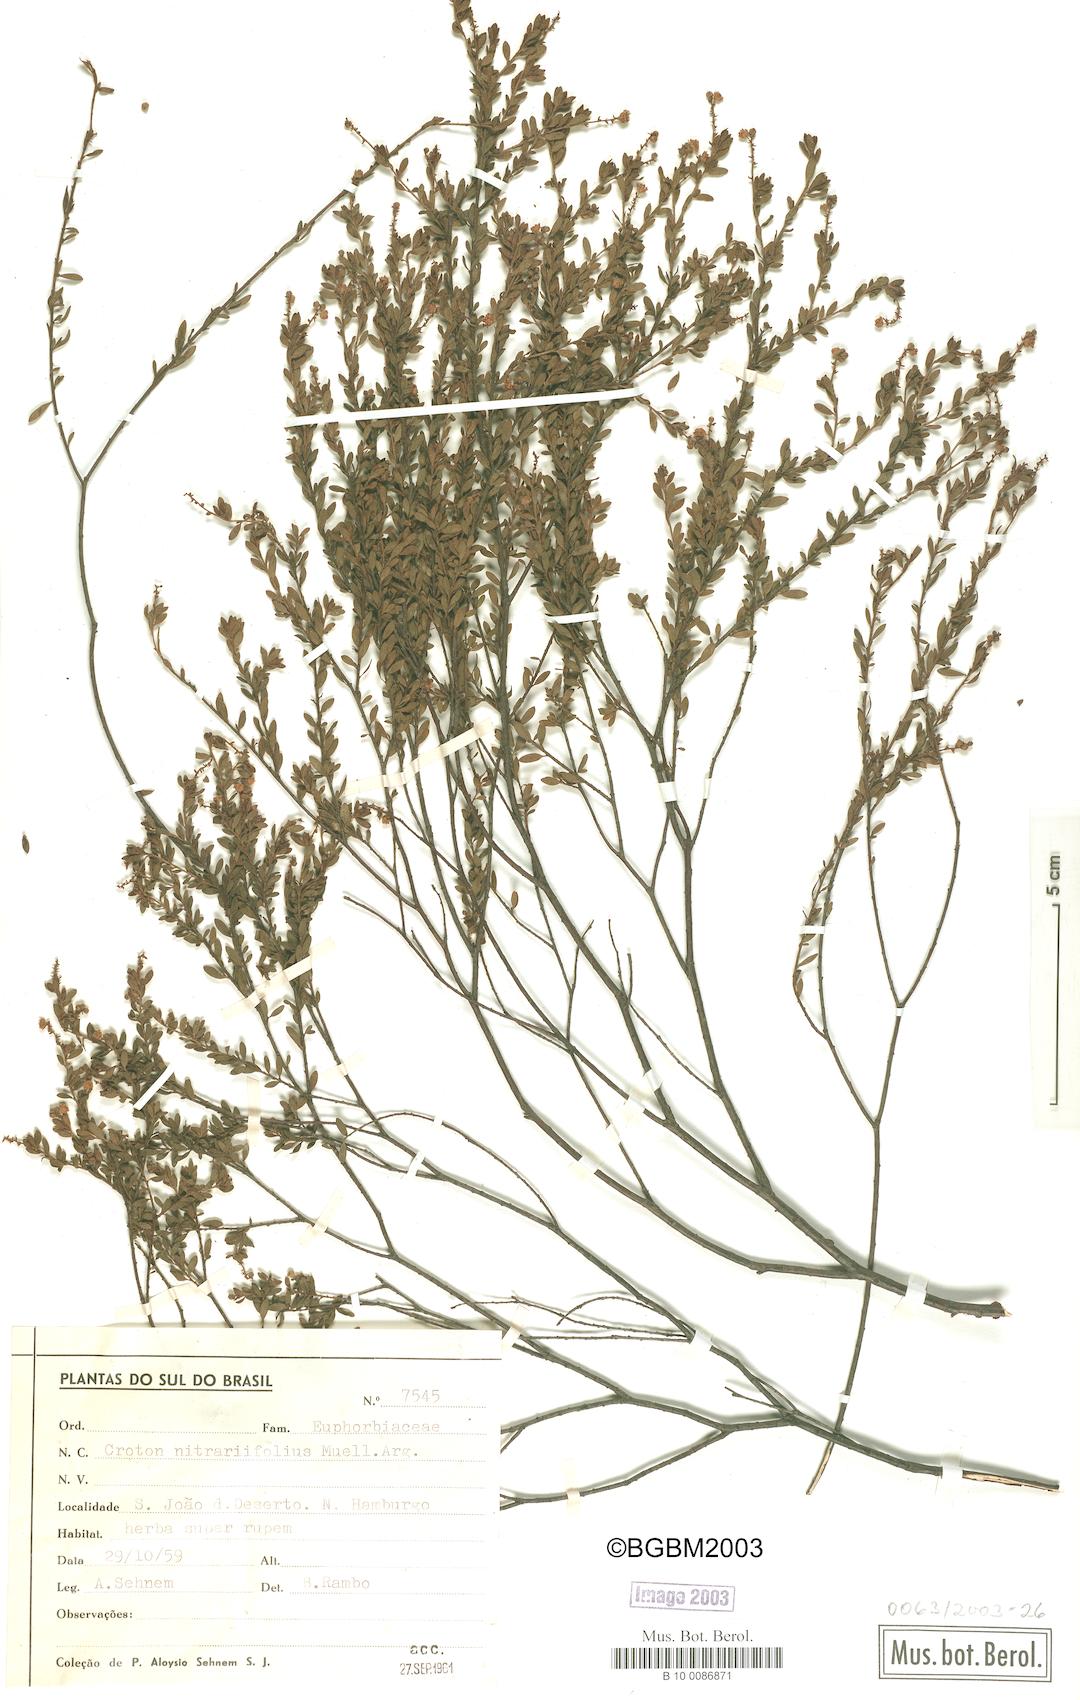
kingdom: Plantae
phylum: Tracheophyta
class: Magnoliopsida
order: Malpighiales
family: Euphorbiaceae
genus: Croton
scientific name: Croton nitrariifolius
